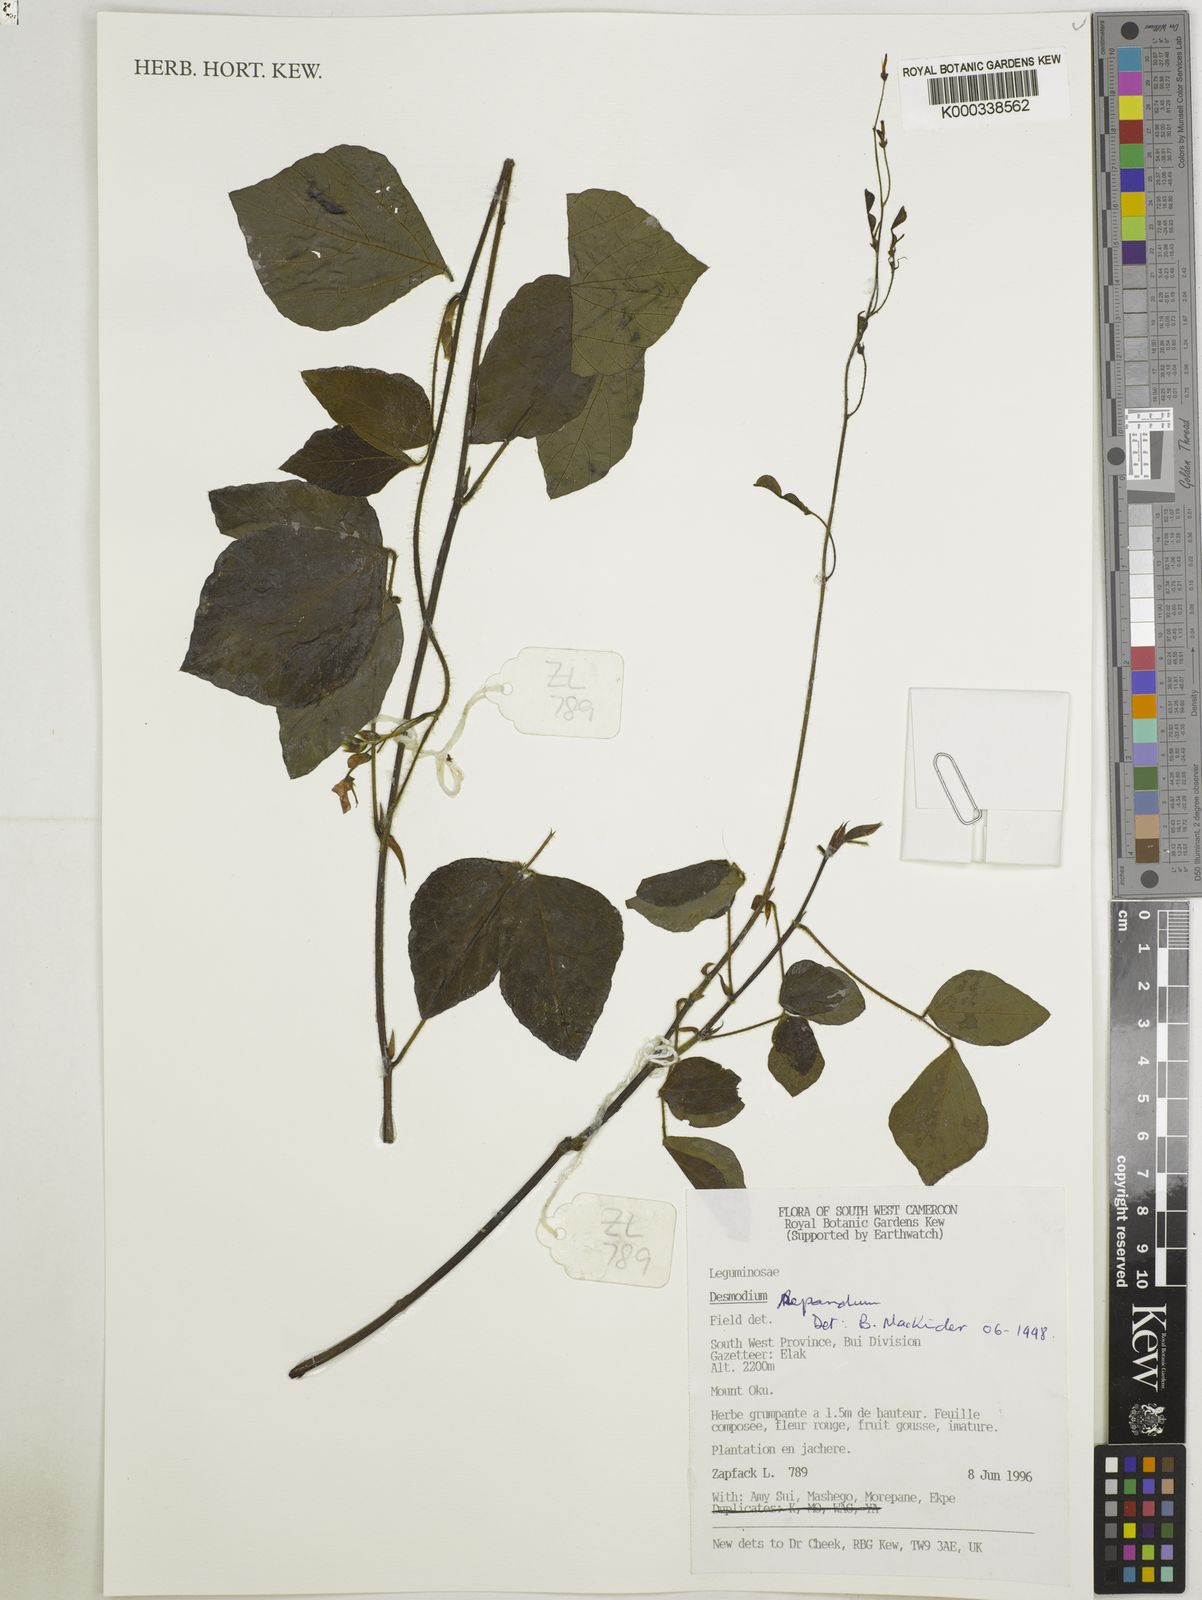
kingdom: Plantae
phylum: Tracheophyta
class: Magnoliopsida
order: Fabales
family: Fabaceae
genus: Desmodium
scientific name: Desmodium
